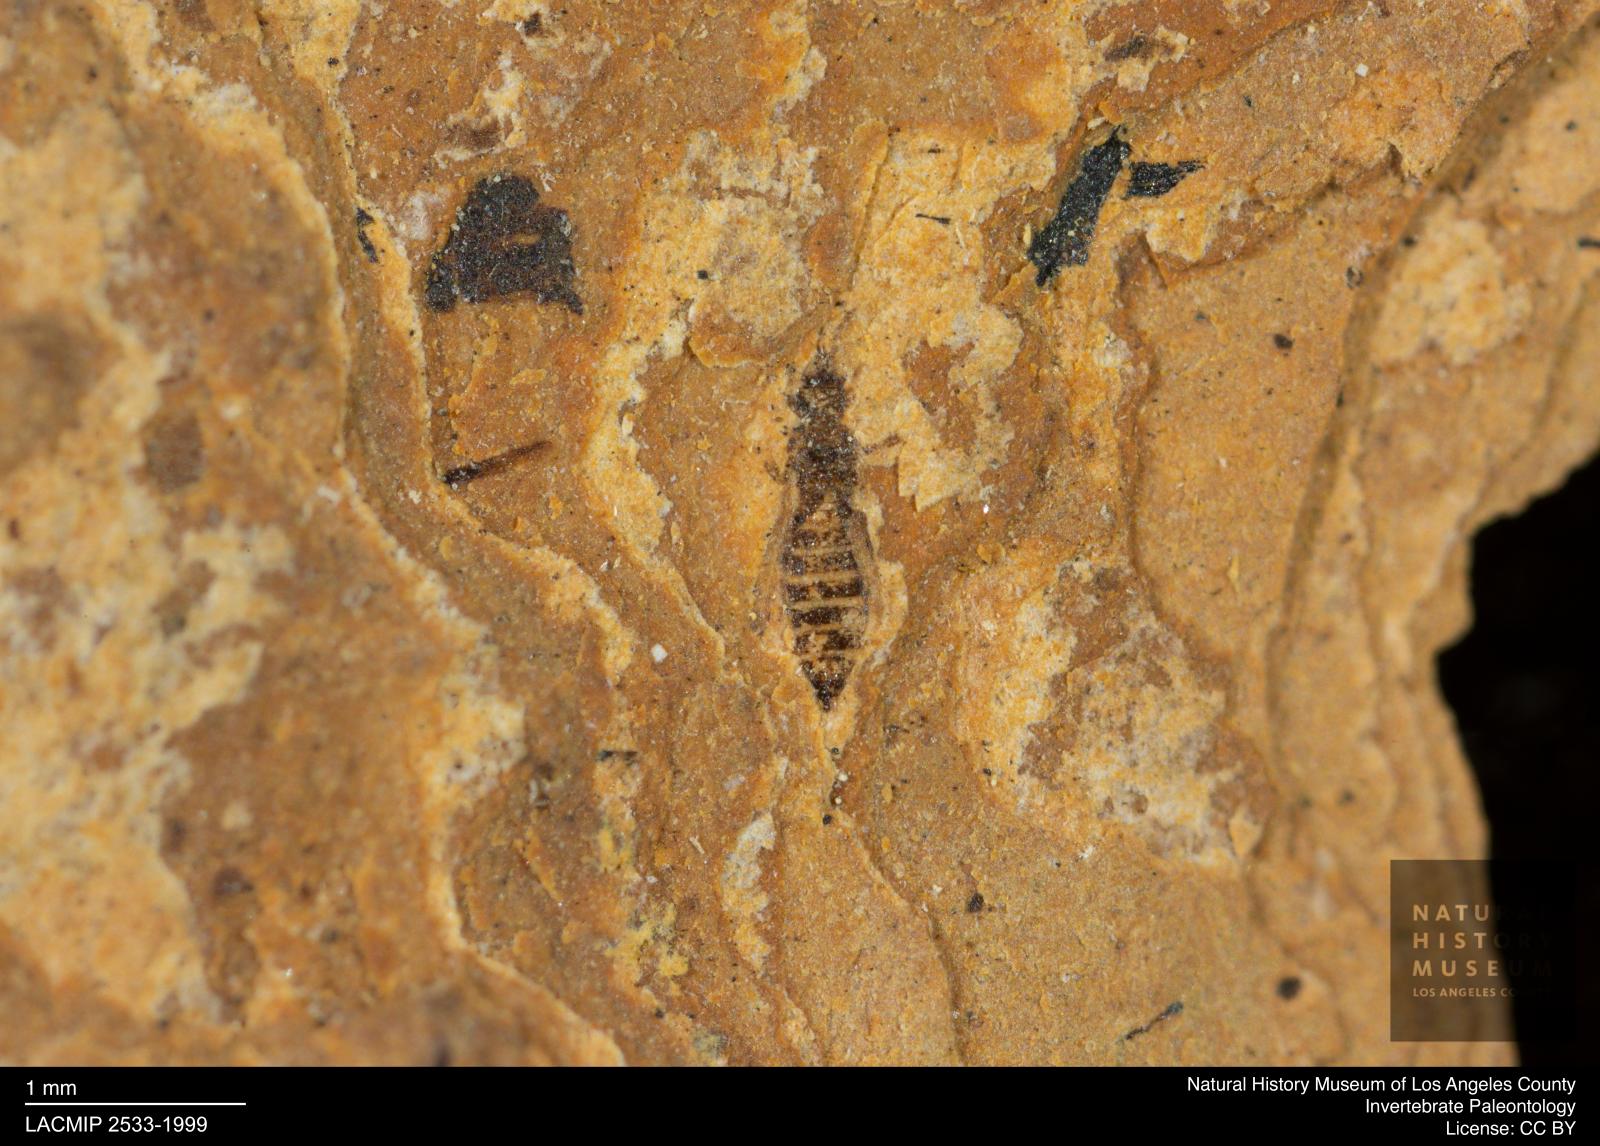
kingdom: Animalia
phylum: Arthropoda
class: Insecta
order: Thysanoptera
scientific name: Thysanoptera
